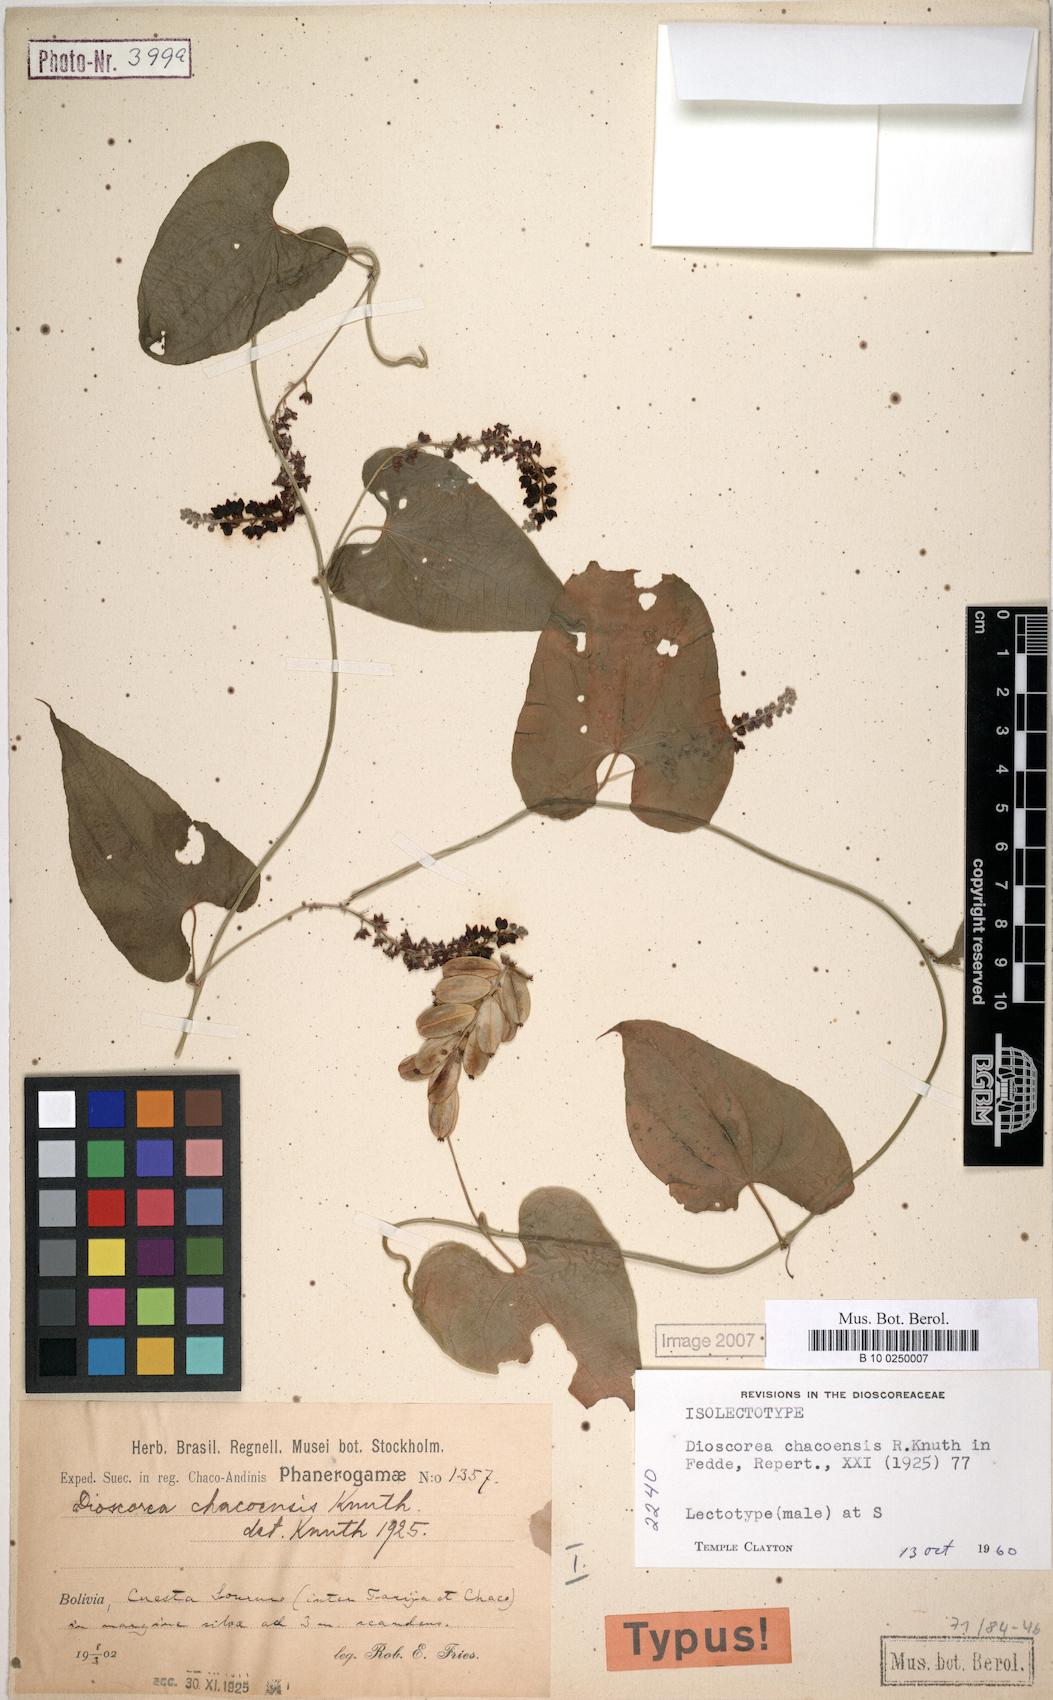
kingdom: Plantae
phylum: Tracheophyta
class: Liliopsida
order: Dioscoreales
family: Dioscoreaceae
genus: Dioscorea
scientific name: Dioscorea glomerulata
